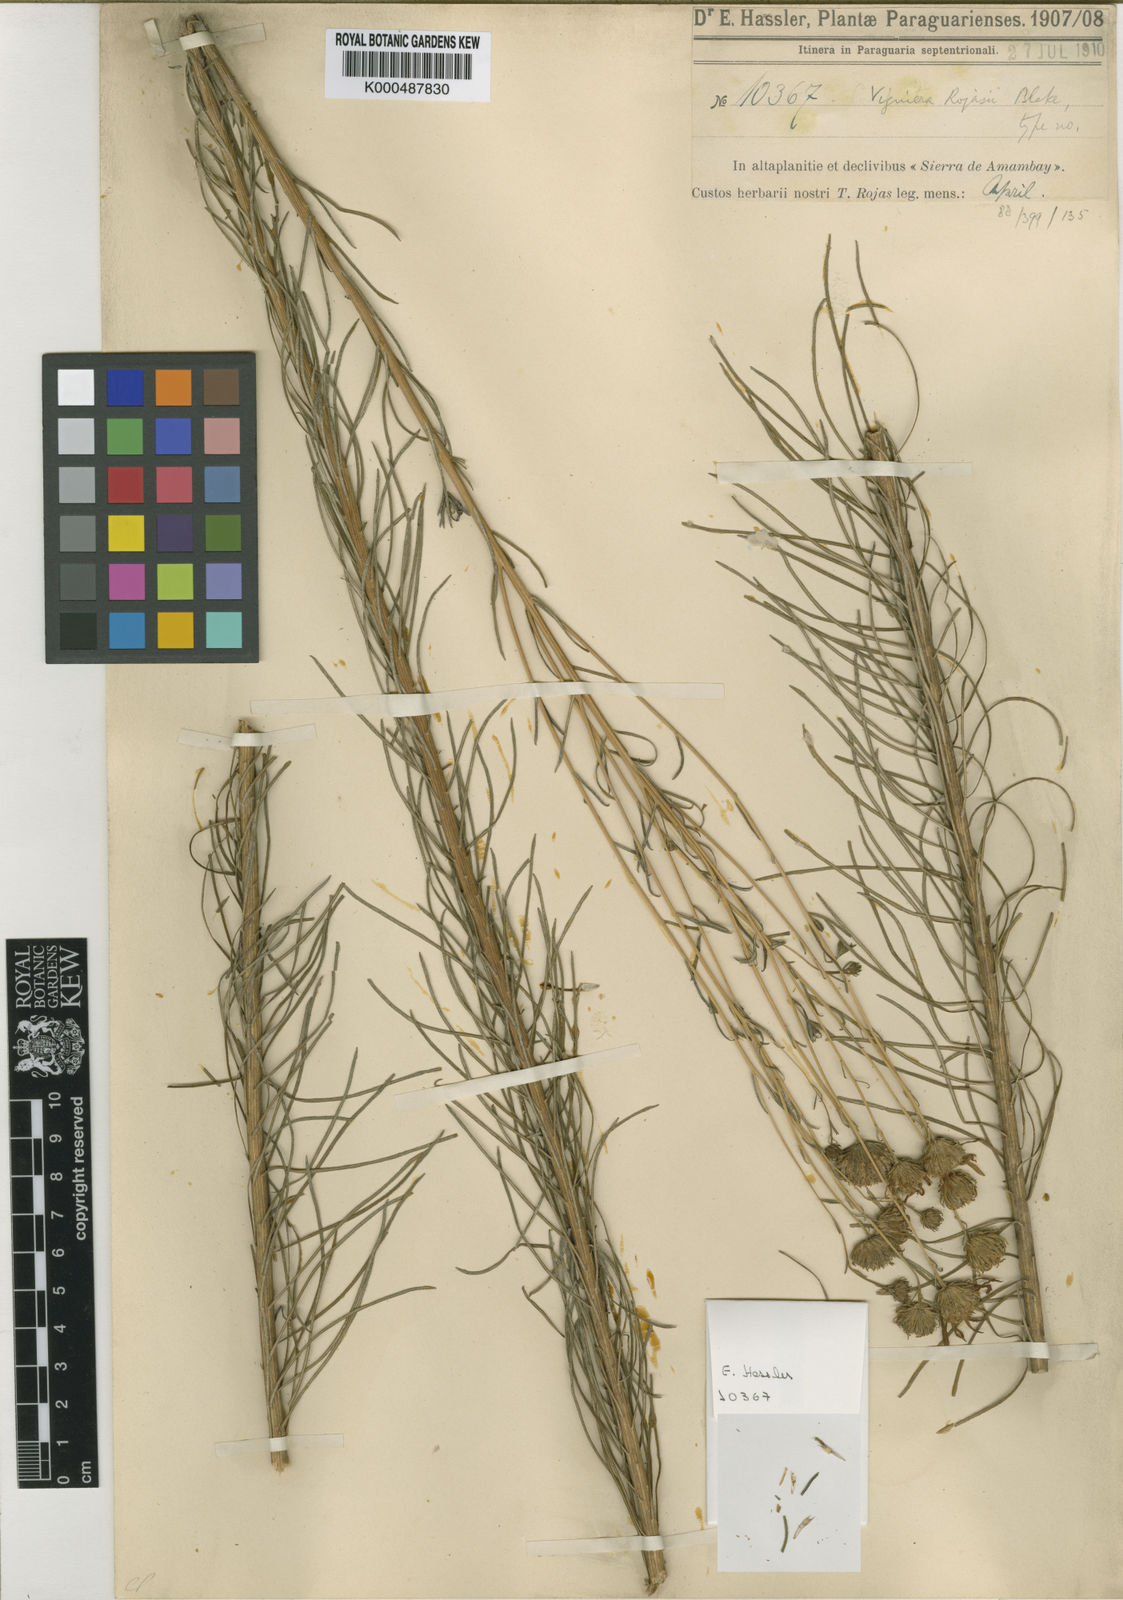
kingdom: Plantae
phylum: Tracheophyta
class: Magnoliopsida
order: Asterales
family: Asteraceae
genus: Aldama
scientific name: Aldama rojasii
